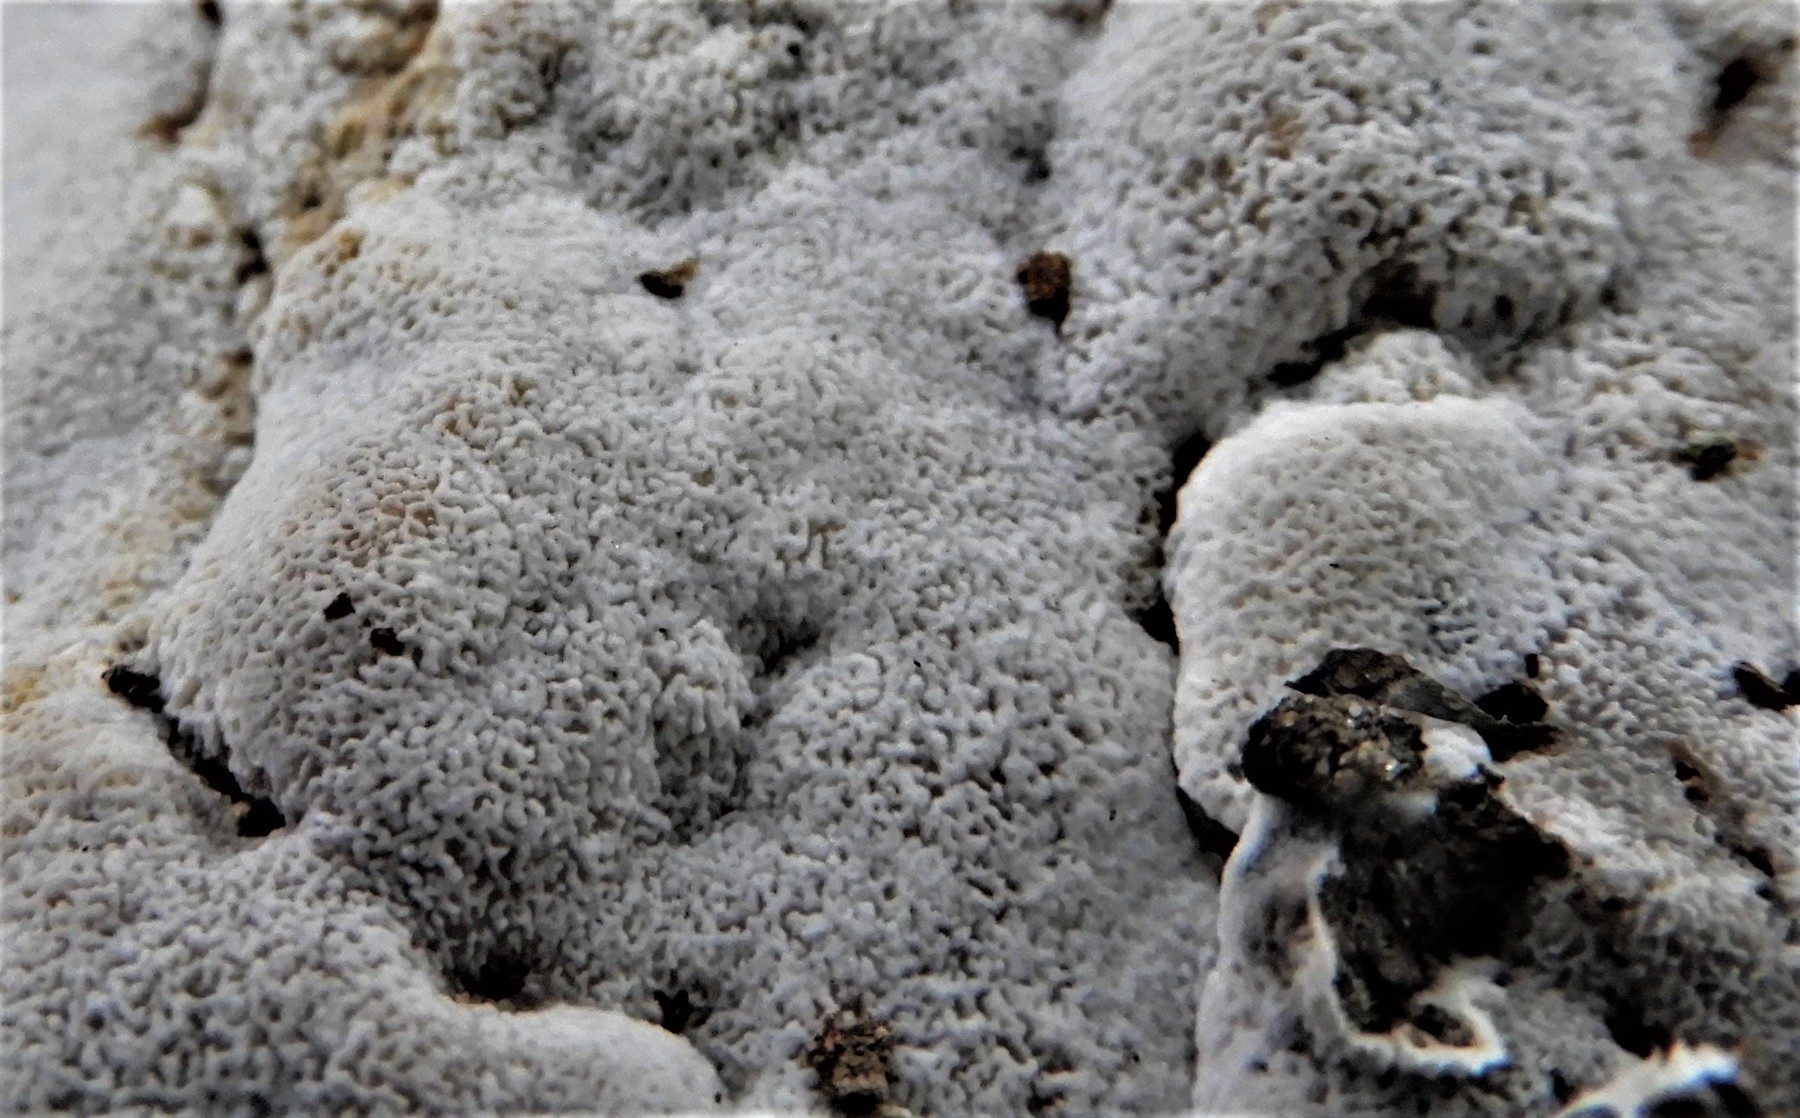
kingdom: Fungi
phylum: Basidiomycota
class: Agaricomycetes
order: Hymenochaetales
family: Schizoporaceae
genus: Xylodon
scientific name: Xylodon
